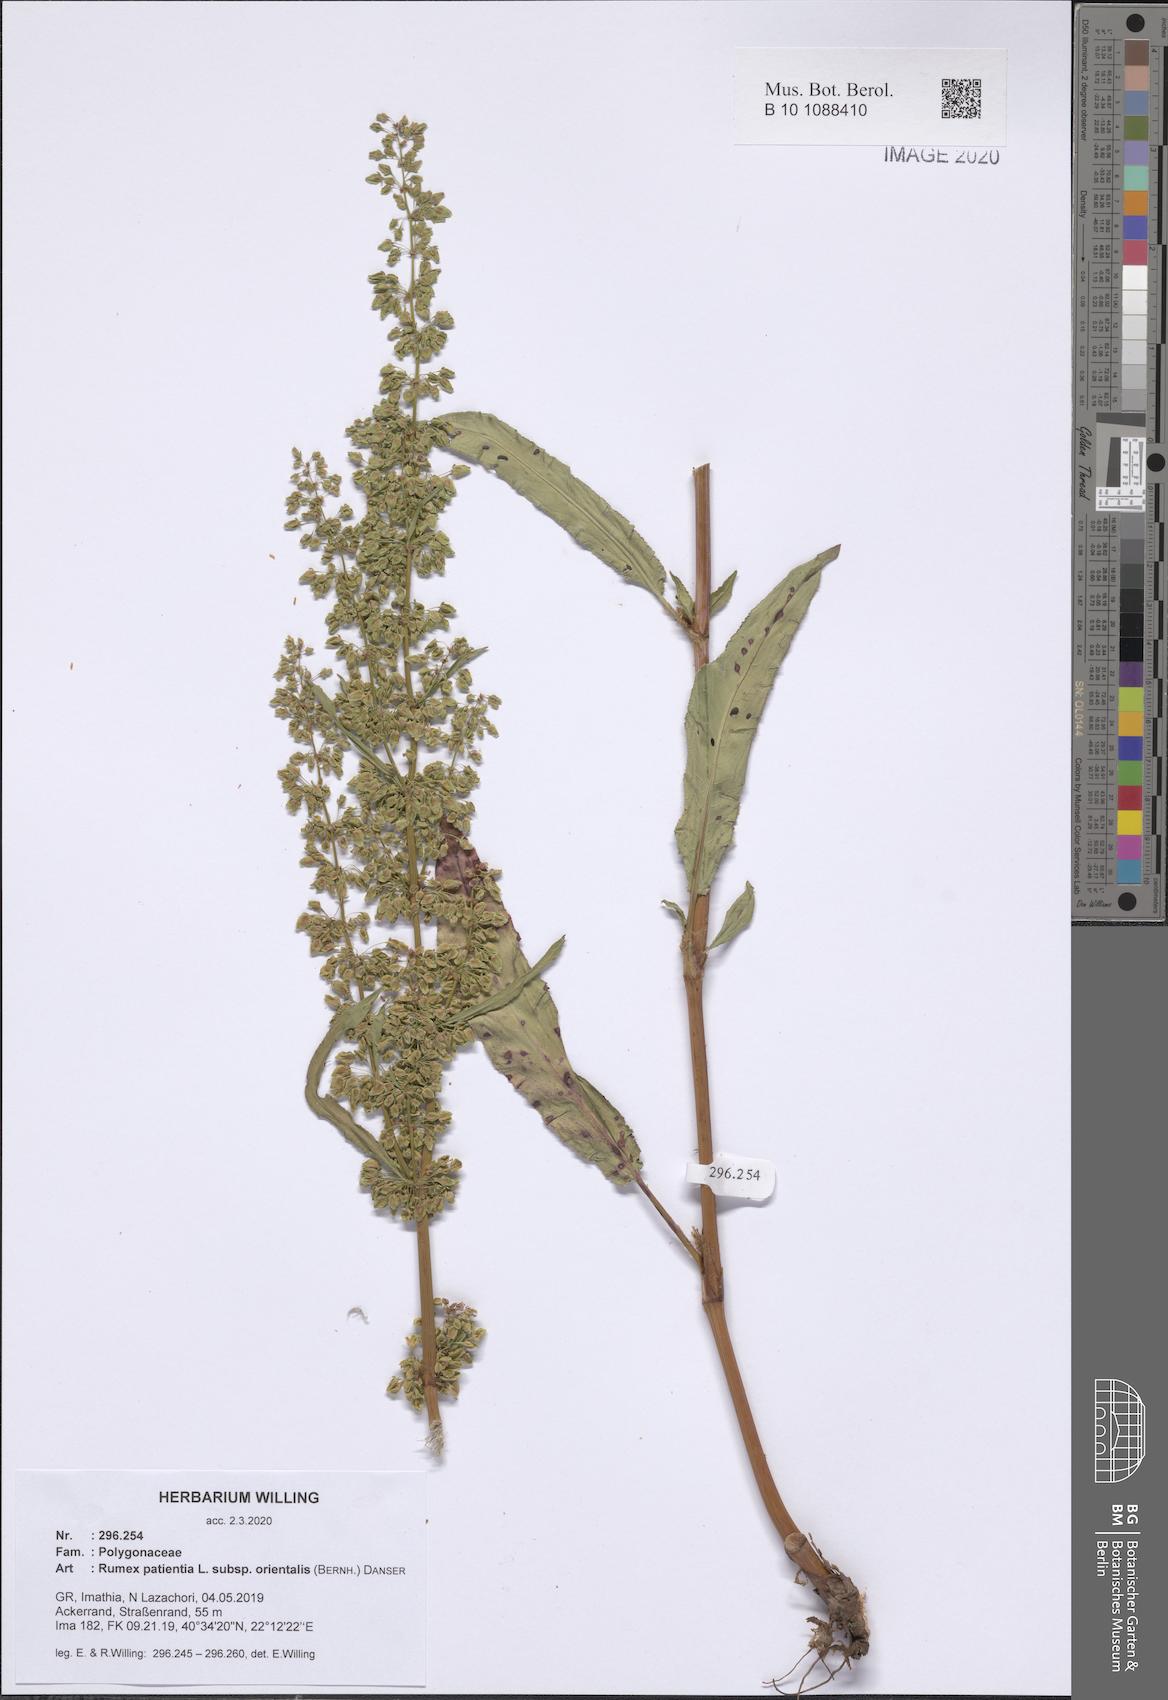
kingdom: Plantae
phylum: Tracheophyta
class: Magnoliopsida
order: Caryophyllales
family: Polygonaceae
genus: Rumex
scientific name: Rumex patientia
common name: Patience dock
